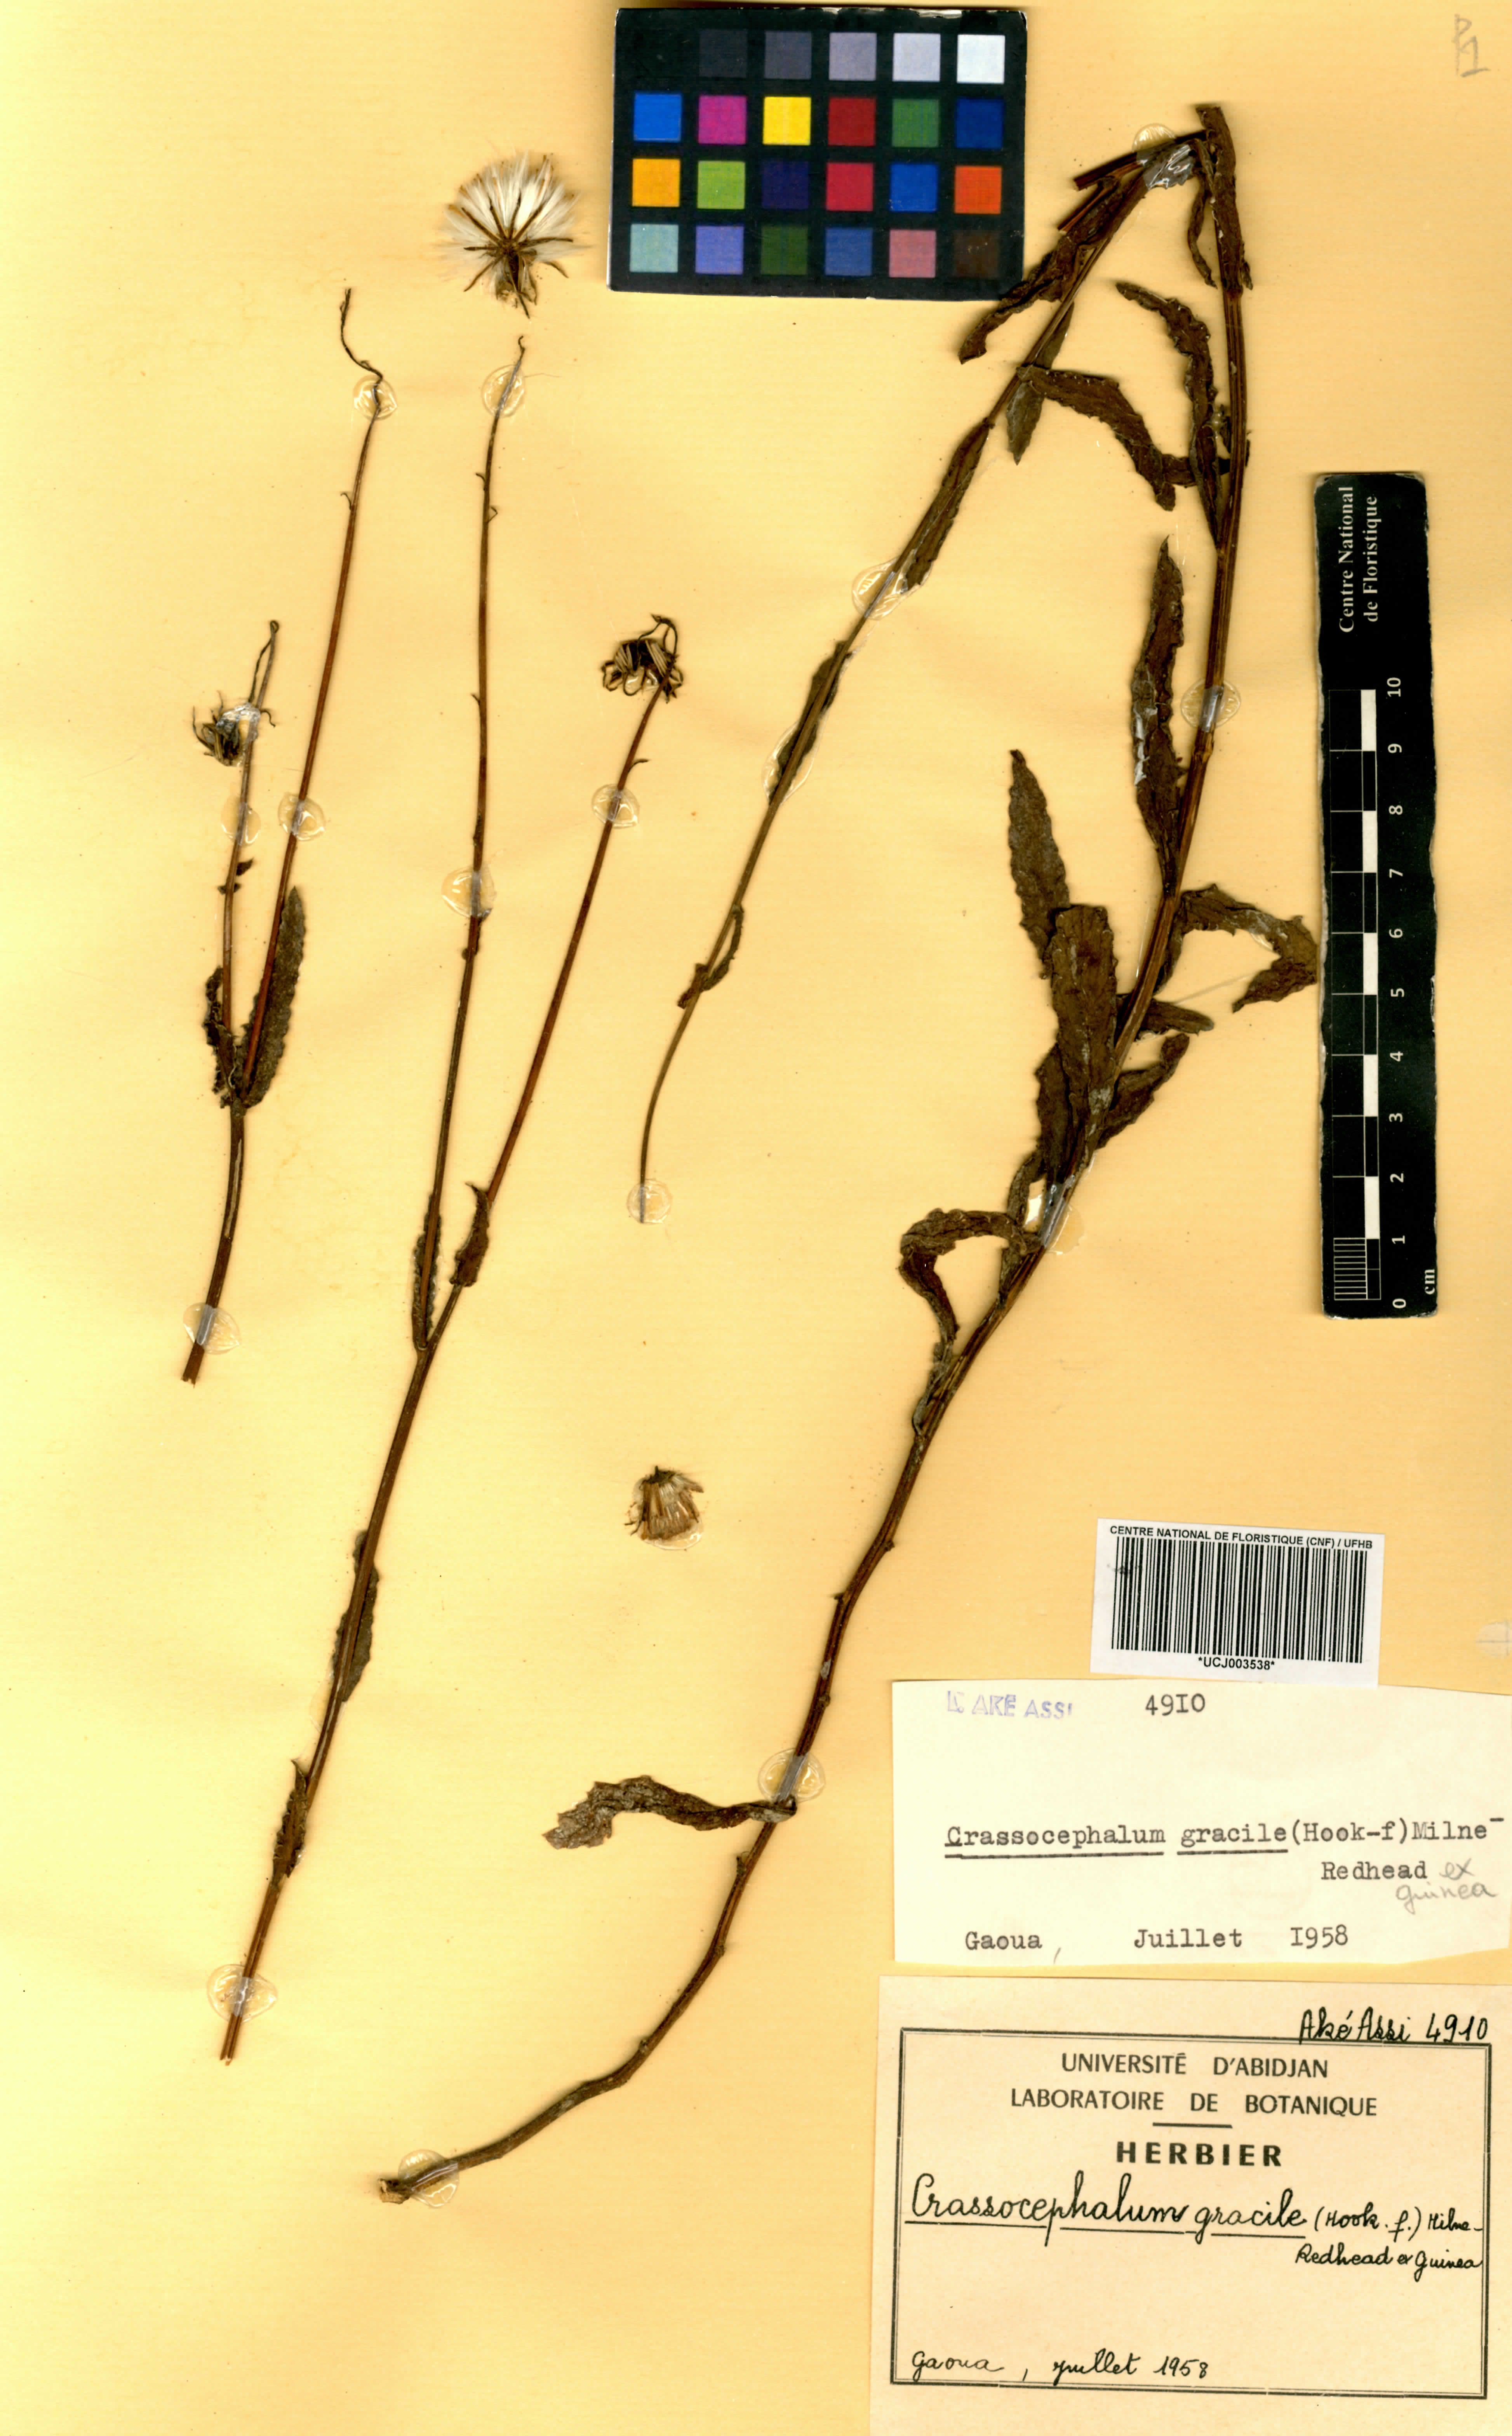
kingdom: Plantae
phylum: Tracheophyta
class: Magnoliopsida
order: Asterales
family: Asteraceae
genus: Crassocephalum
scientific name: Crassocephalum gracile
